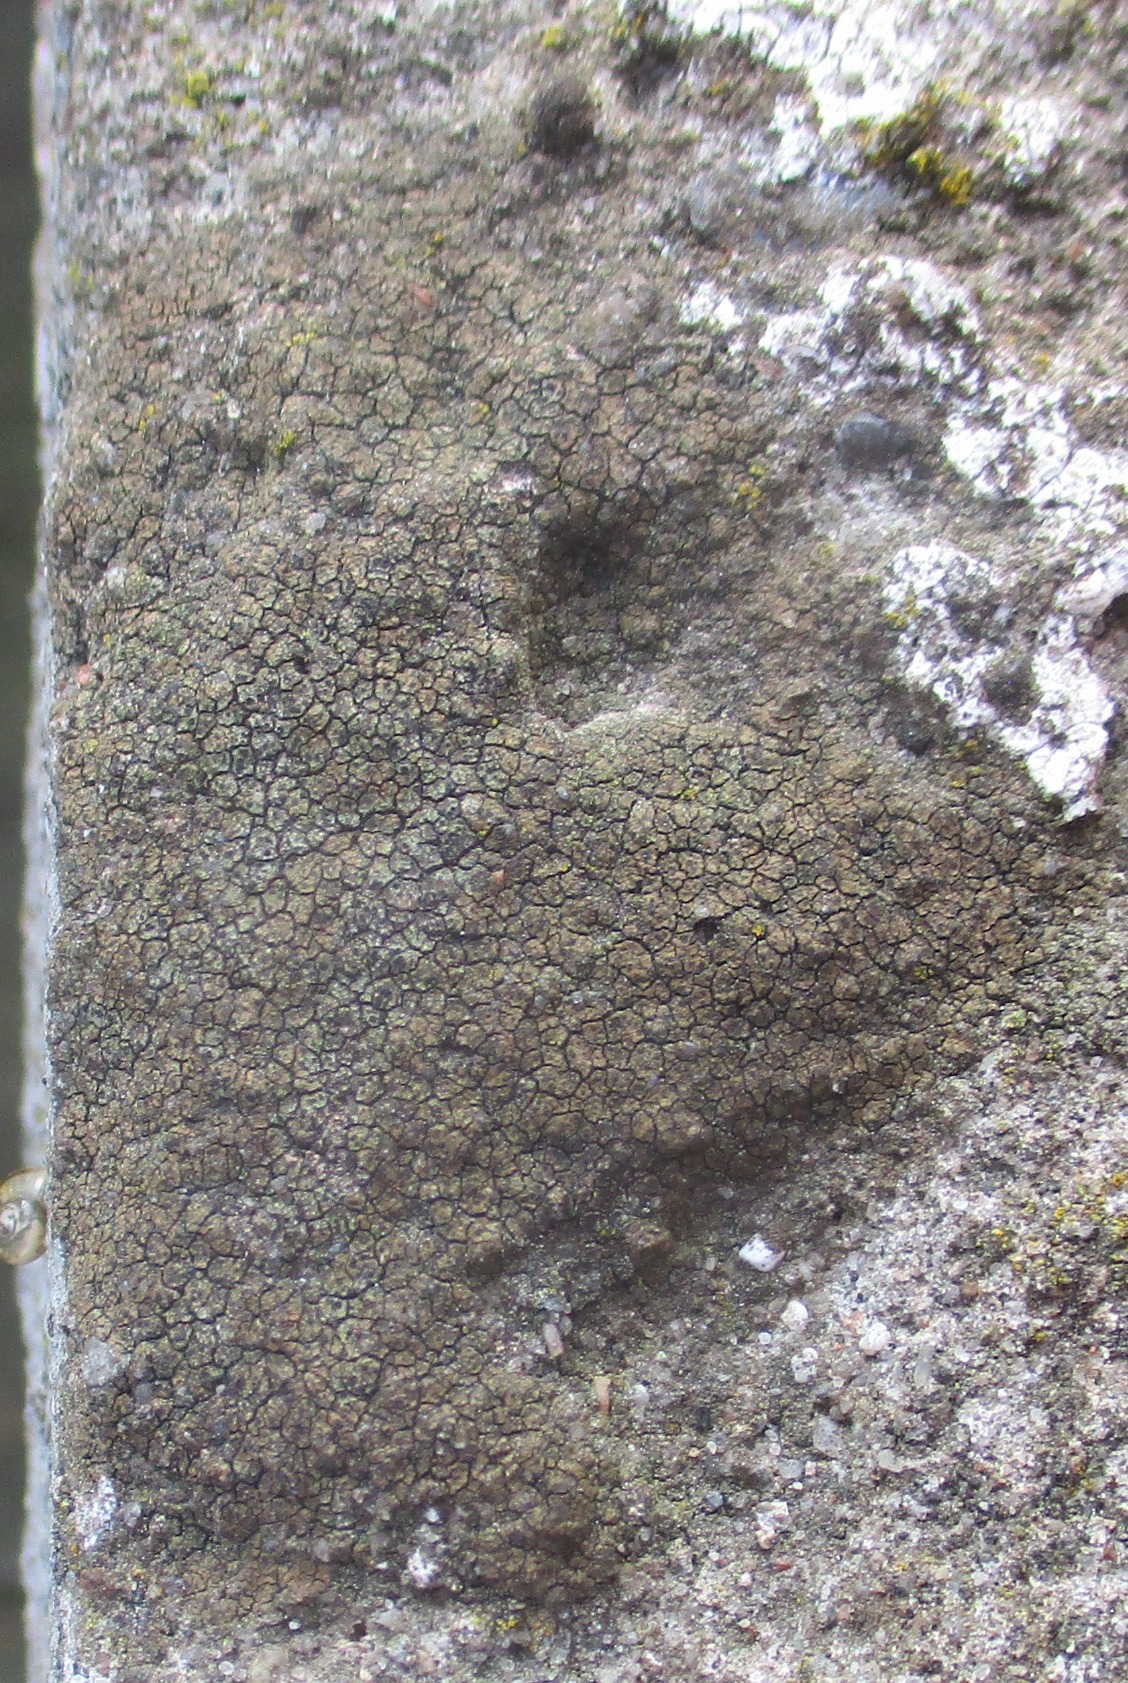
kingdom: Fungi
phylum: Ascomycota
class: Eurotiomycetes
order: Verrucariales
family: Verrucariaceae
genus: Verrucaria
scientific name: Verrucaria nigrescens
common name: Sortbrun vortelav
